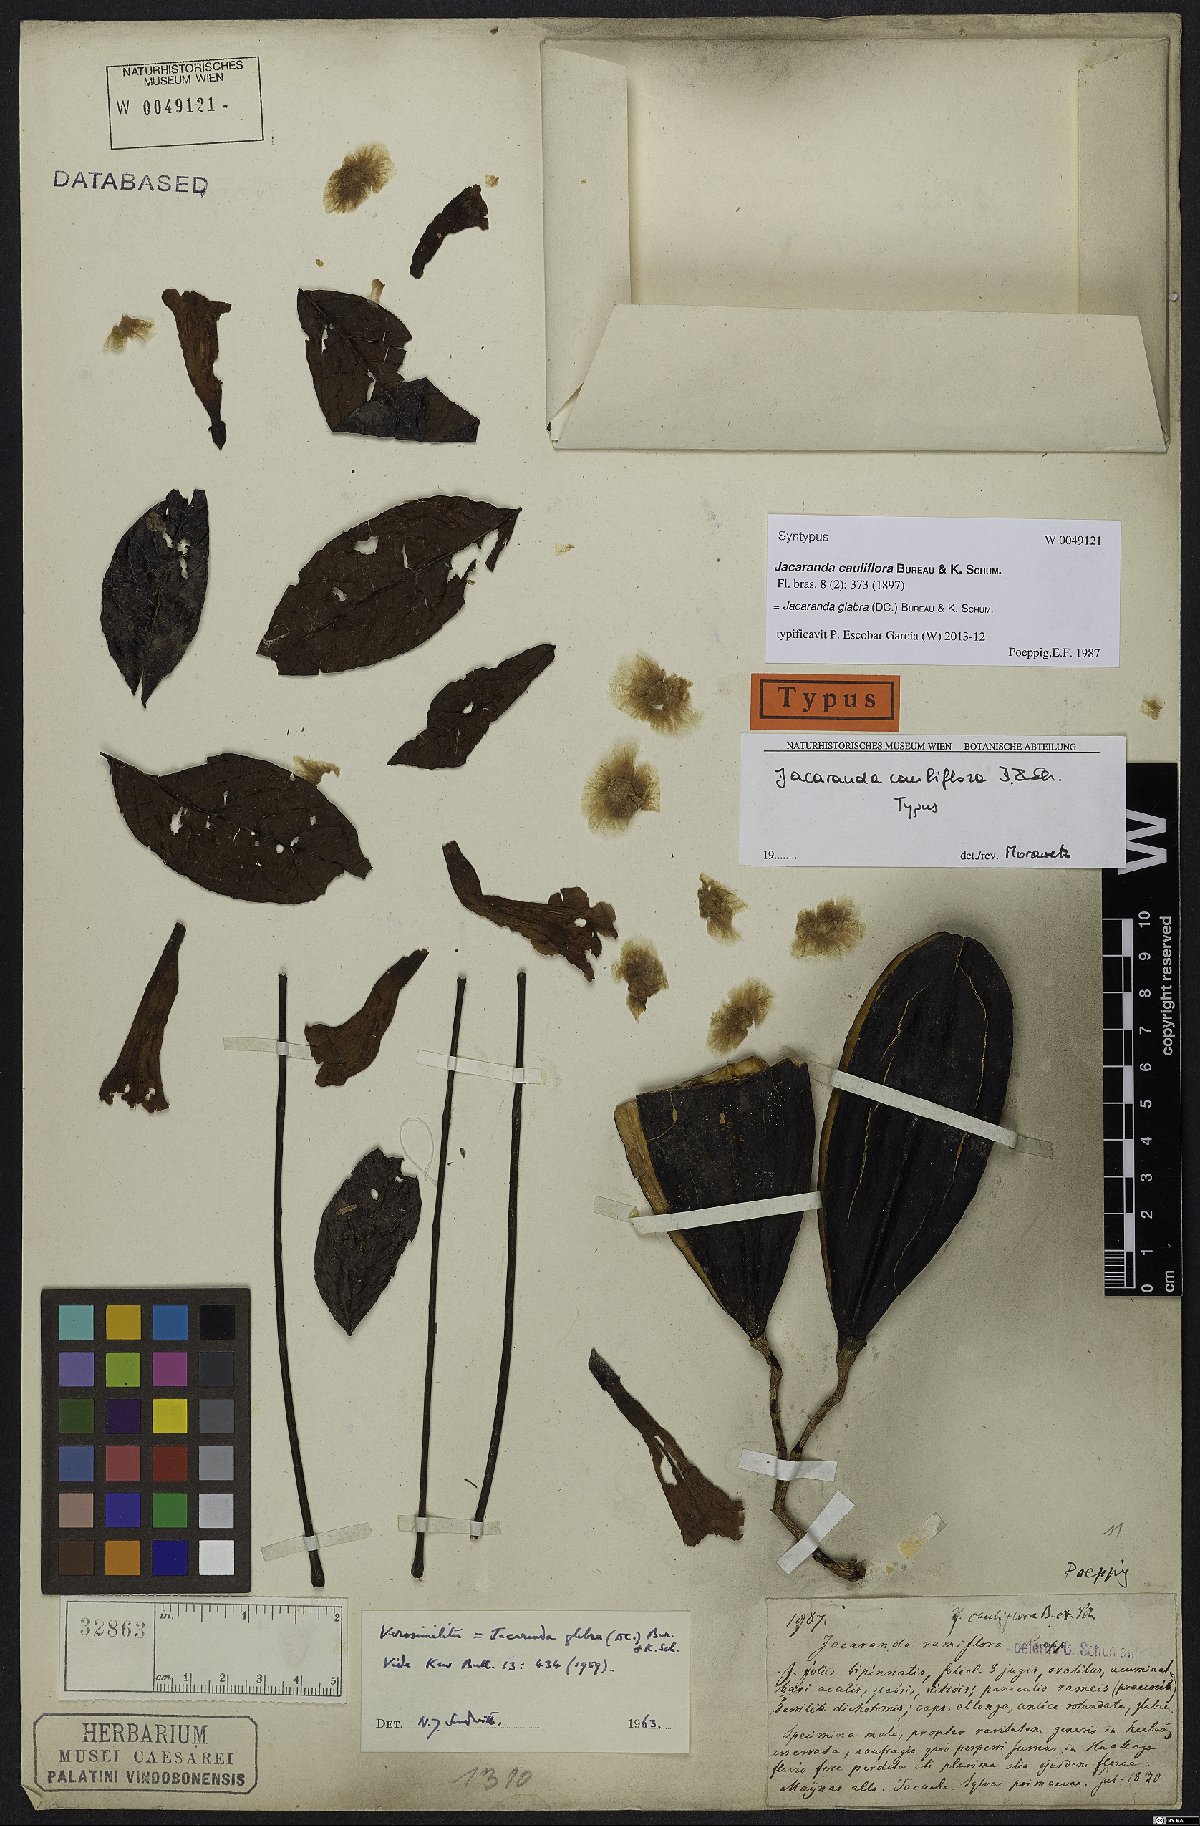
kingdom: Plantae
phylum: Tracheophyta
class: Magnoliopsida
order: Lamiales
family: Bignoniaceae
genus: Jacaranda
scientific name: Jacaranda glabra
